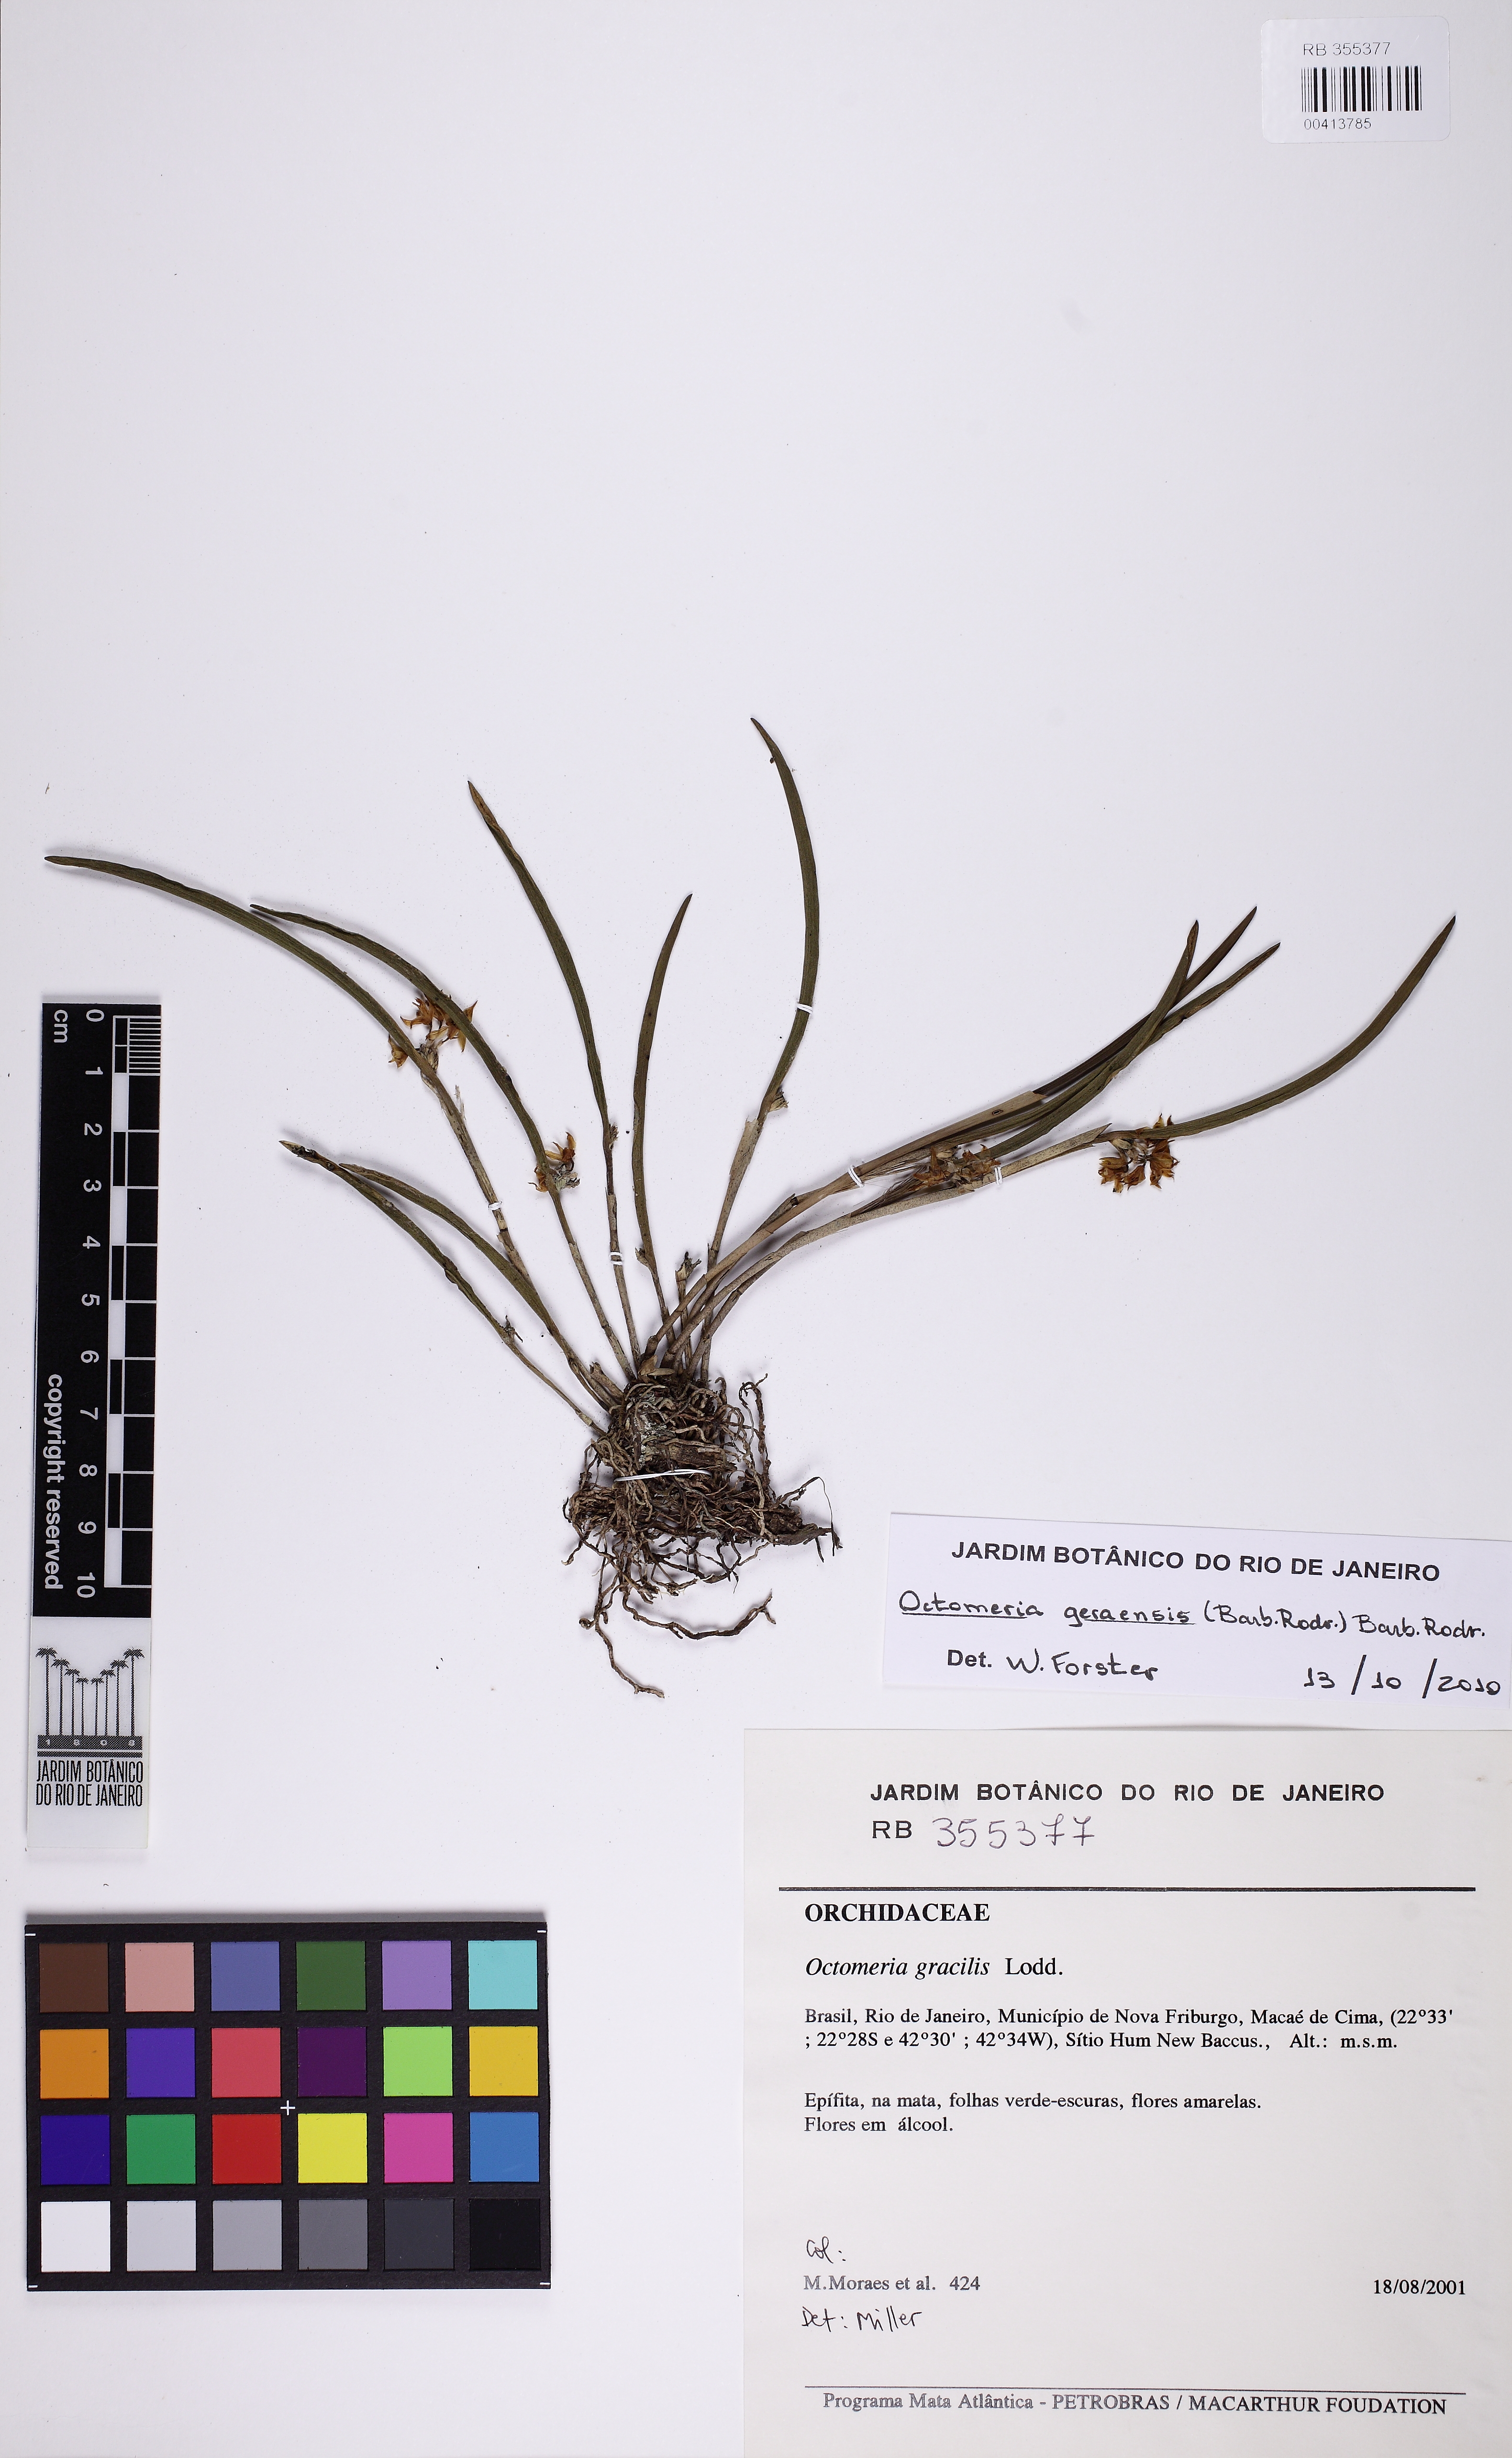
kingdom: Plantae
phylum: Tracheophyta
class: Liliopsida
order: Asparagales
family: Orchidaceae
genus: Octomeria
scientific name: Octomeria geraensis
